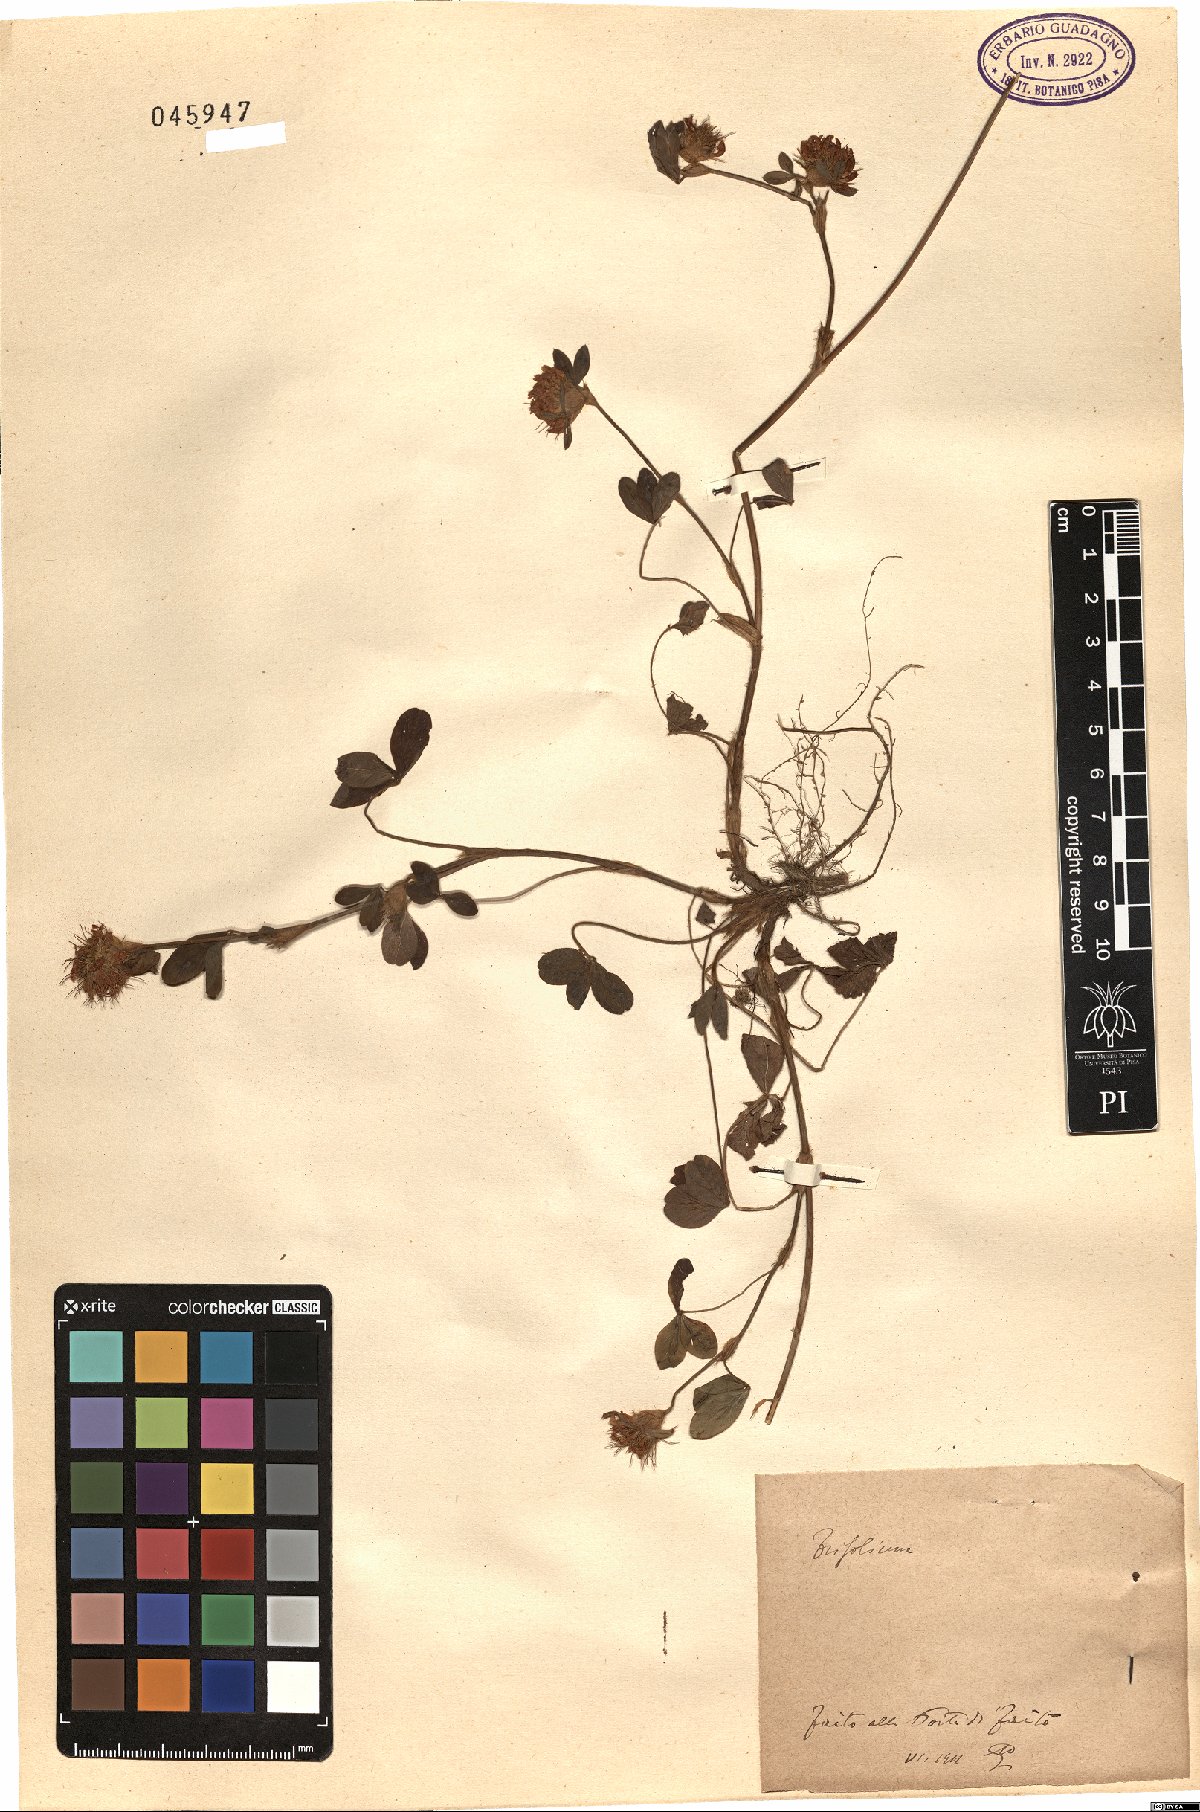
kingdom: Plantae
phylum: Tracheophyta
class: Magnoliopsida
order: Fabales
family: Fabaceae
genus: Trifolium
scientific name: Trifolium
